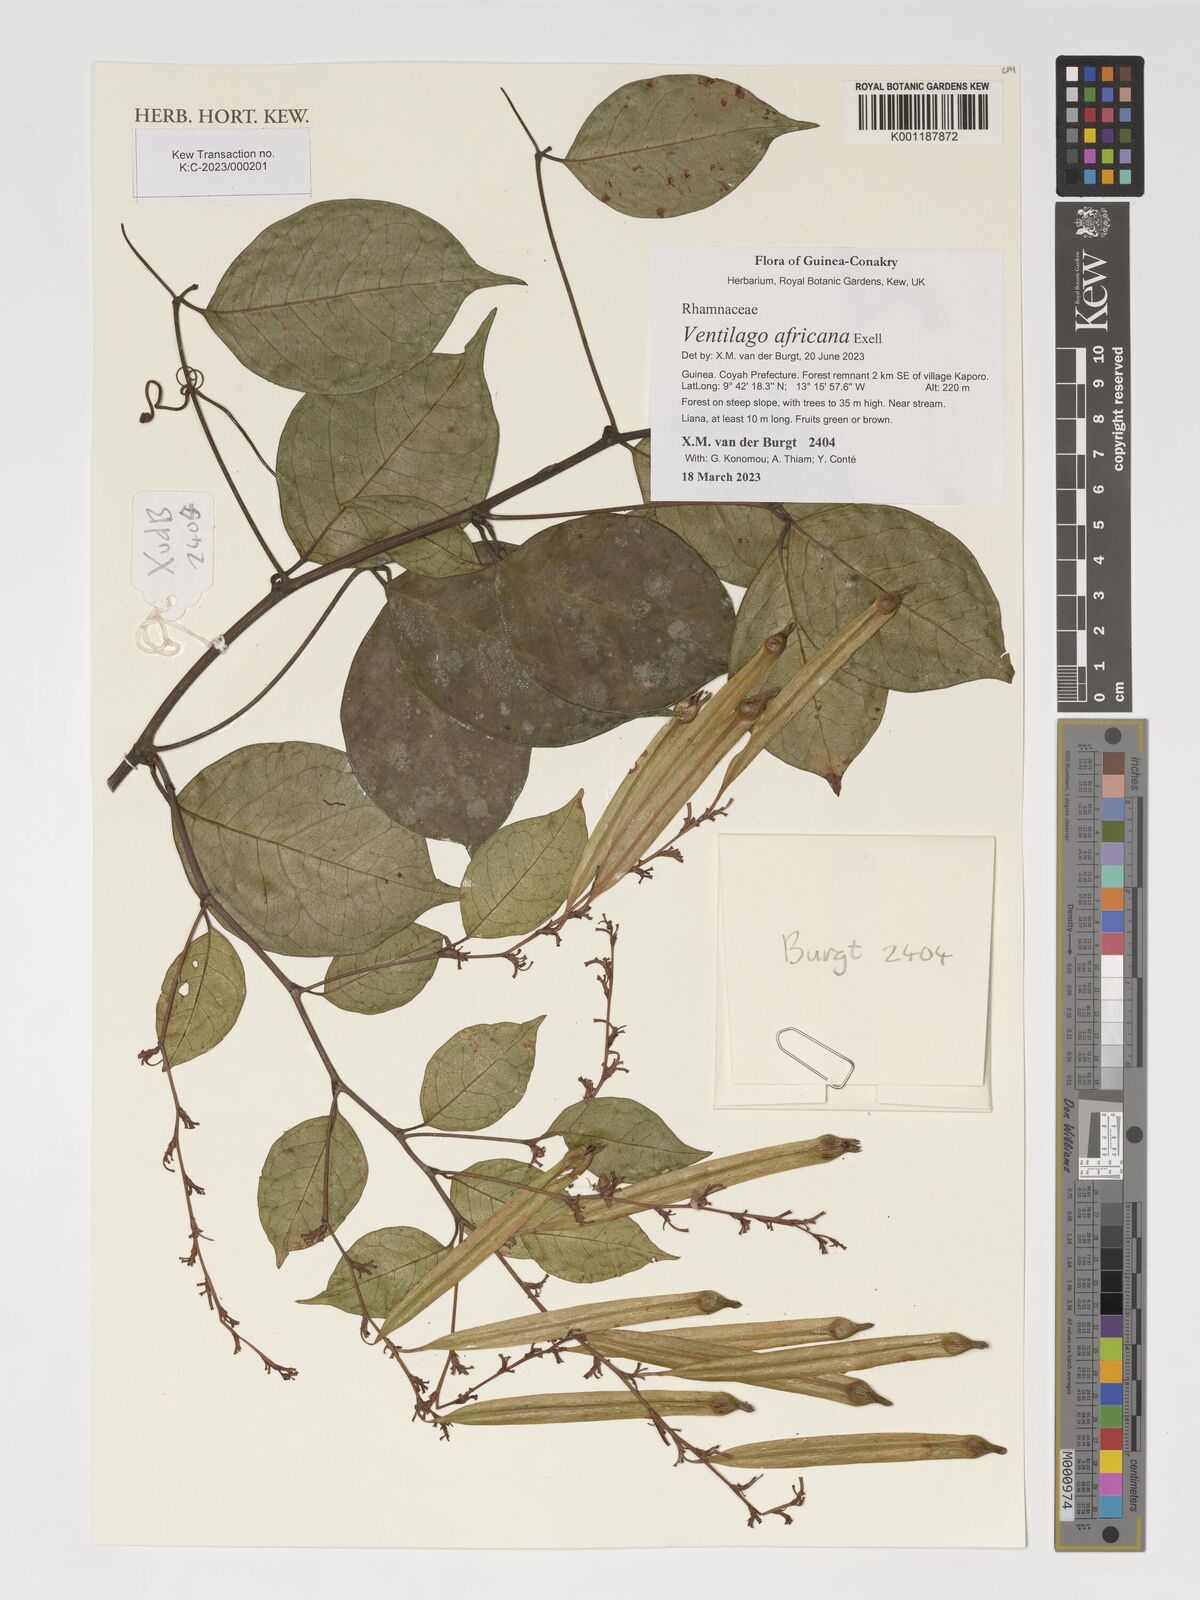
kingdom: Plantae
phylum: Tracheophyta
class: Magnoliopsida
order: Rosales
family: Rhamnaceae
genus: Ventilago
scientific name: Ventilago africana
